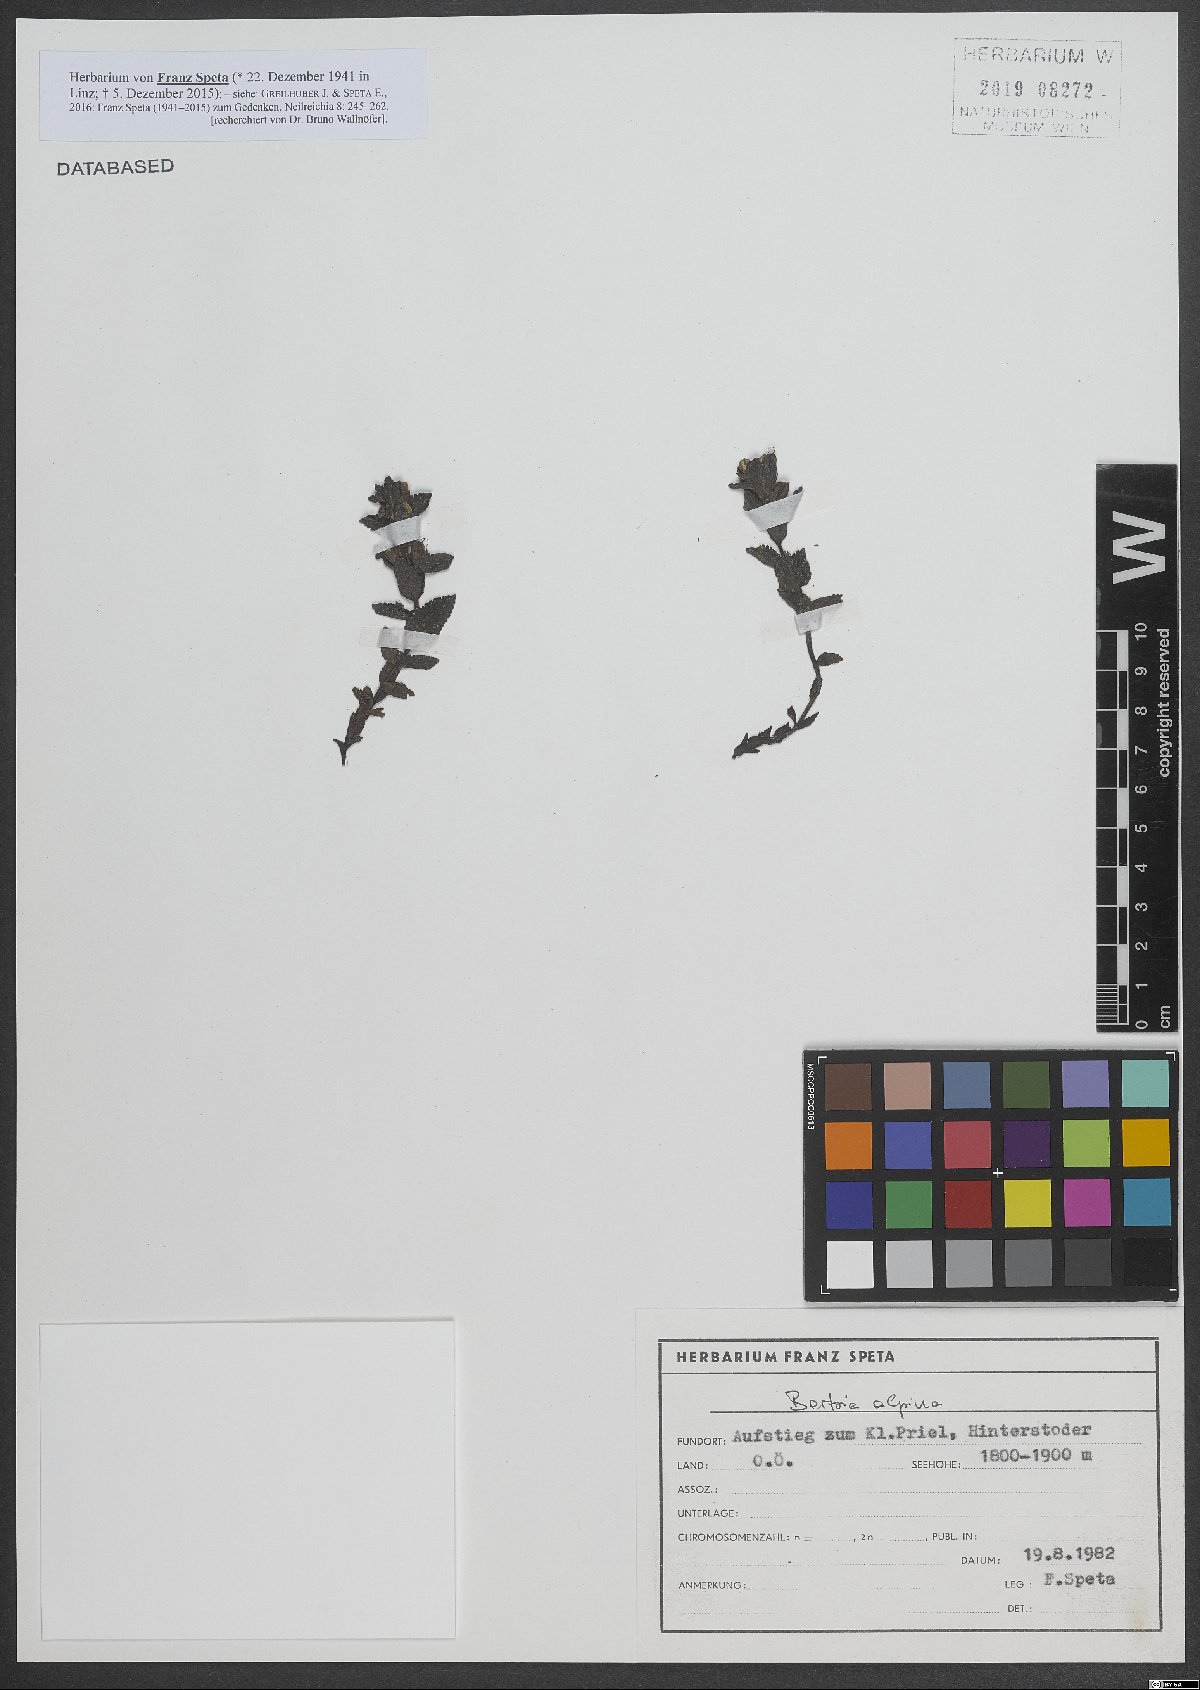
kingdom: Plantae
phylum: Tracheophyta
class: Magnoliopsida
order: Lamiales
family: Orobanchaceae
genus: Bartsia
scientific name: Bartsia alpina
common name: Alpine bartsia
